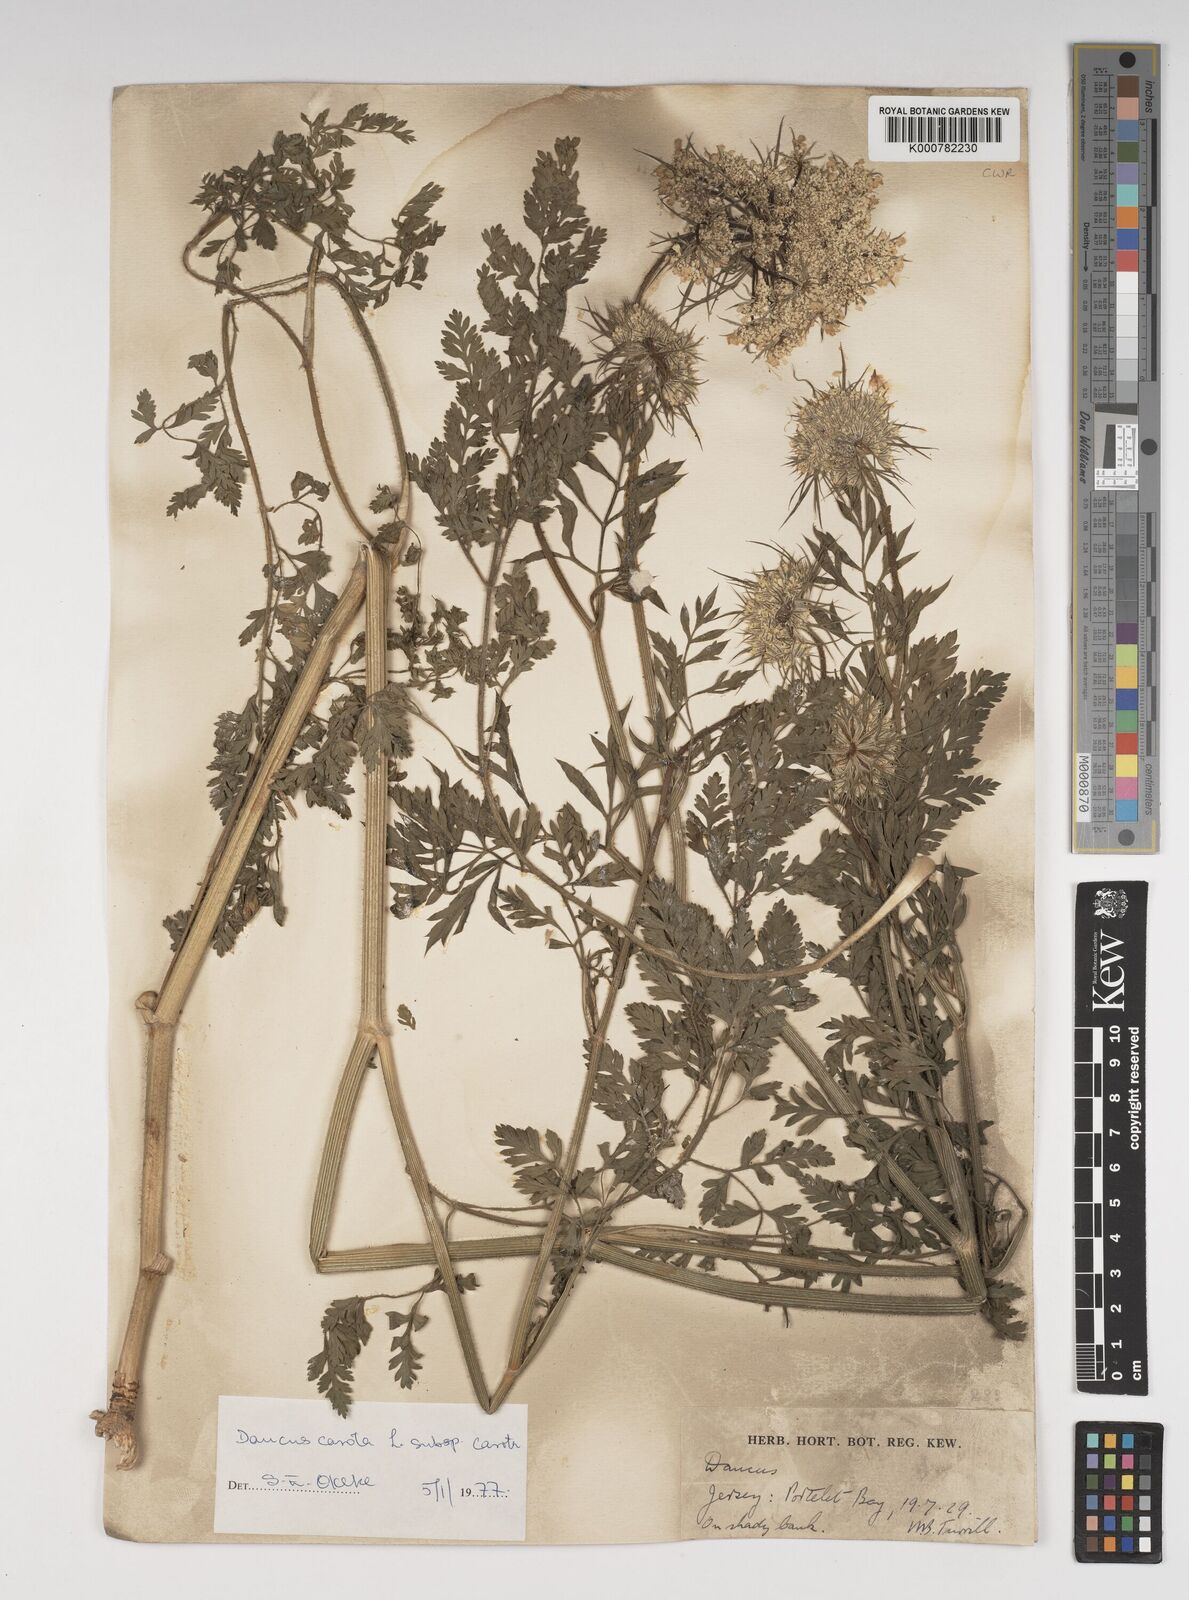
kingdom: Plantae
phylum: Tracheophyta
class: Magnoliopsida
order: Apiales
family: Apiaceae
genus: Daucus
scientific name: Daucus carota
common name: Wild carrot
